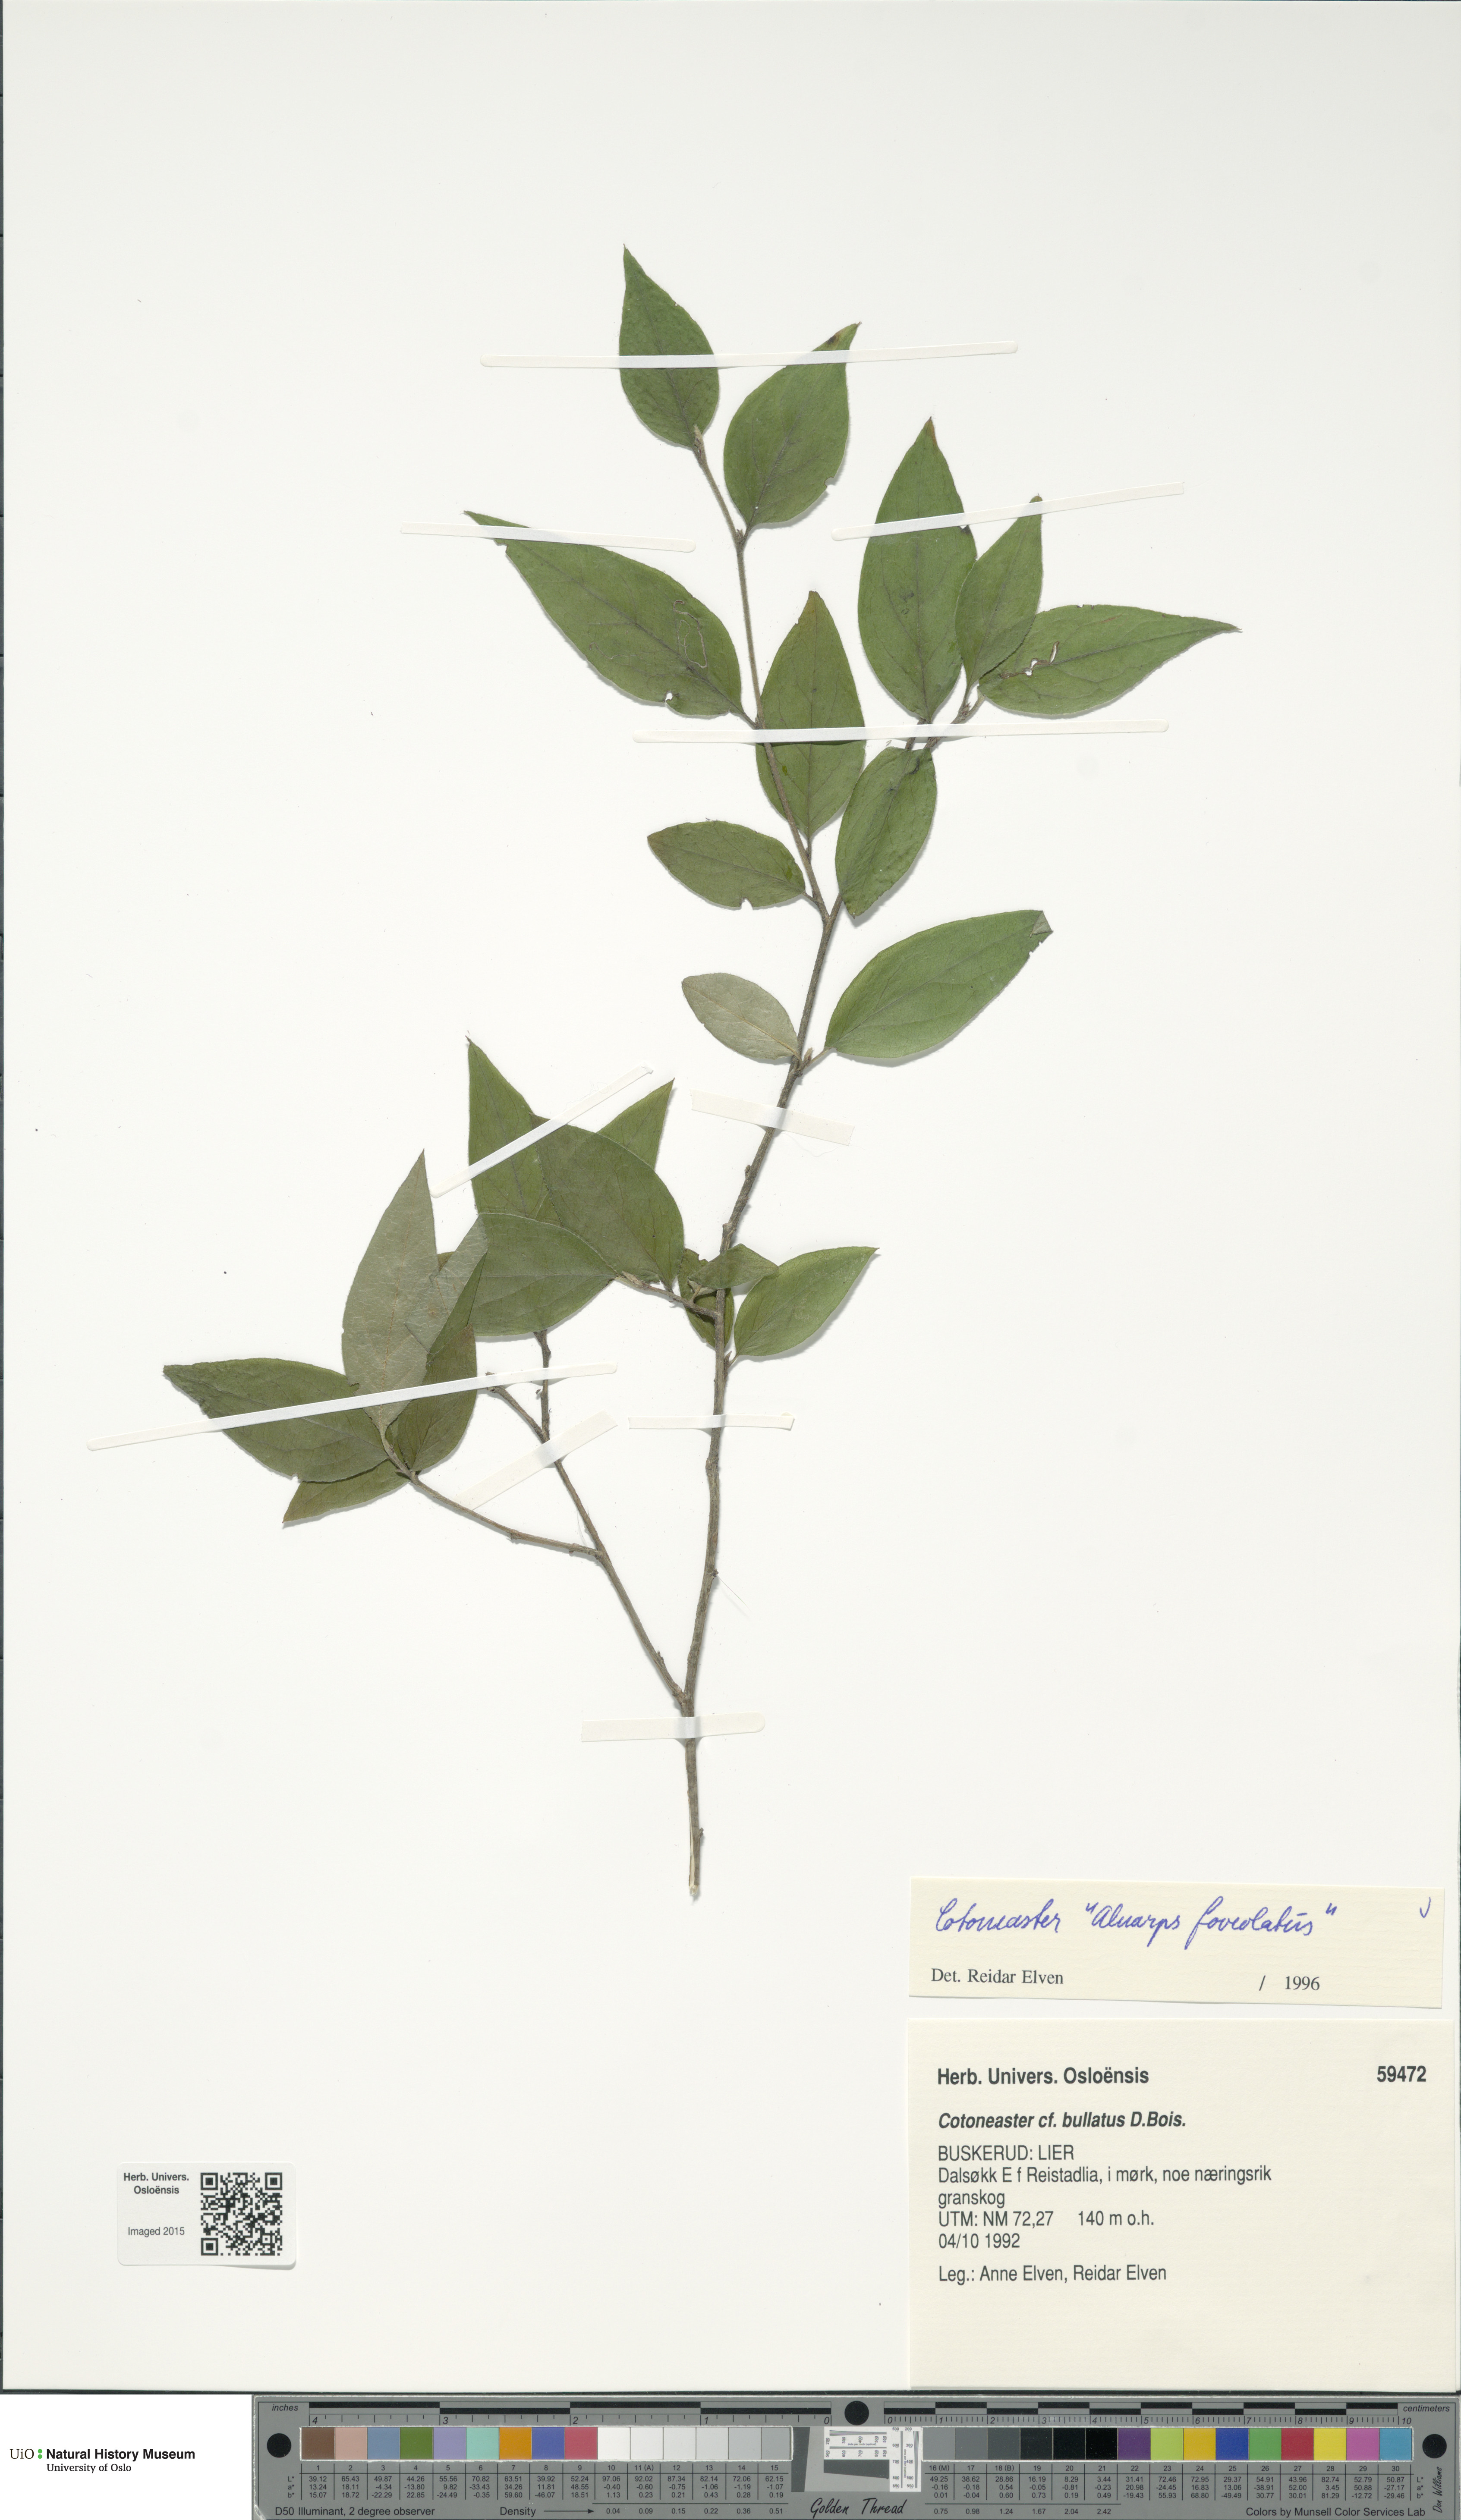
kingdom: Plantae
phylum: Tracheophyta
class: Magnoliopsida
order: Rosales
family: Rosaceae
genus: Cotoneaster
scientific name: Cotoneaster moupinensis
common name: Moupin cotoneaster
